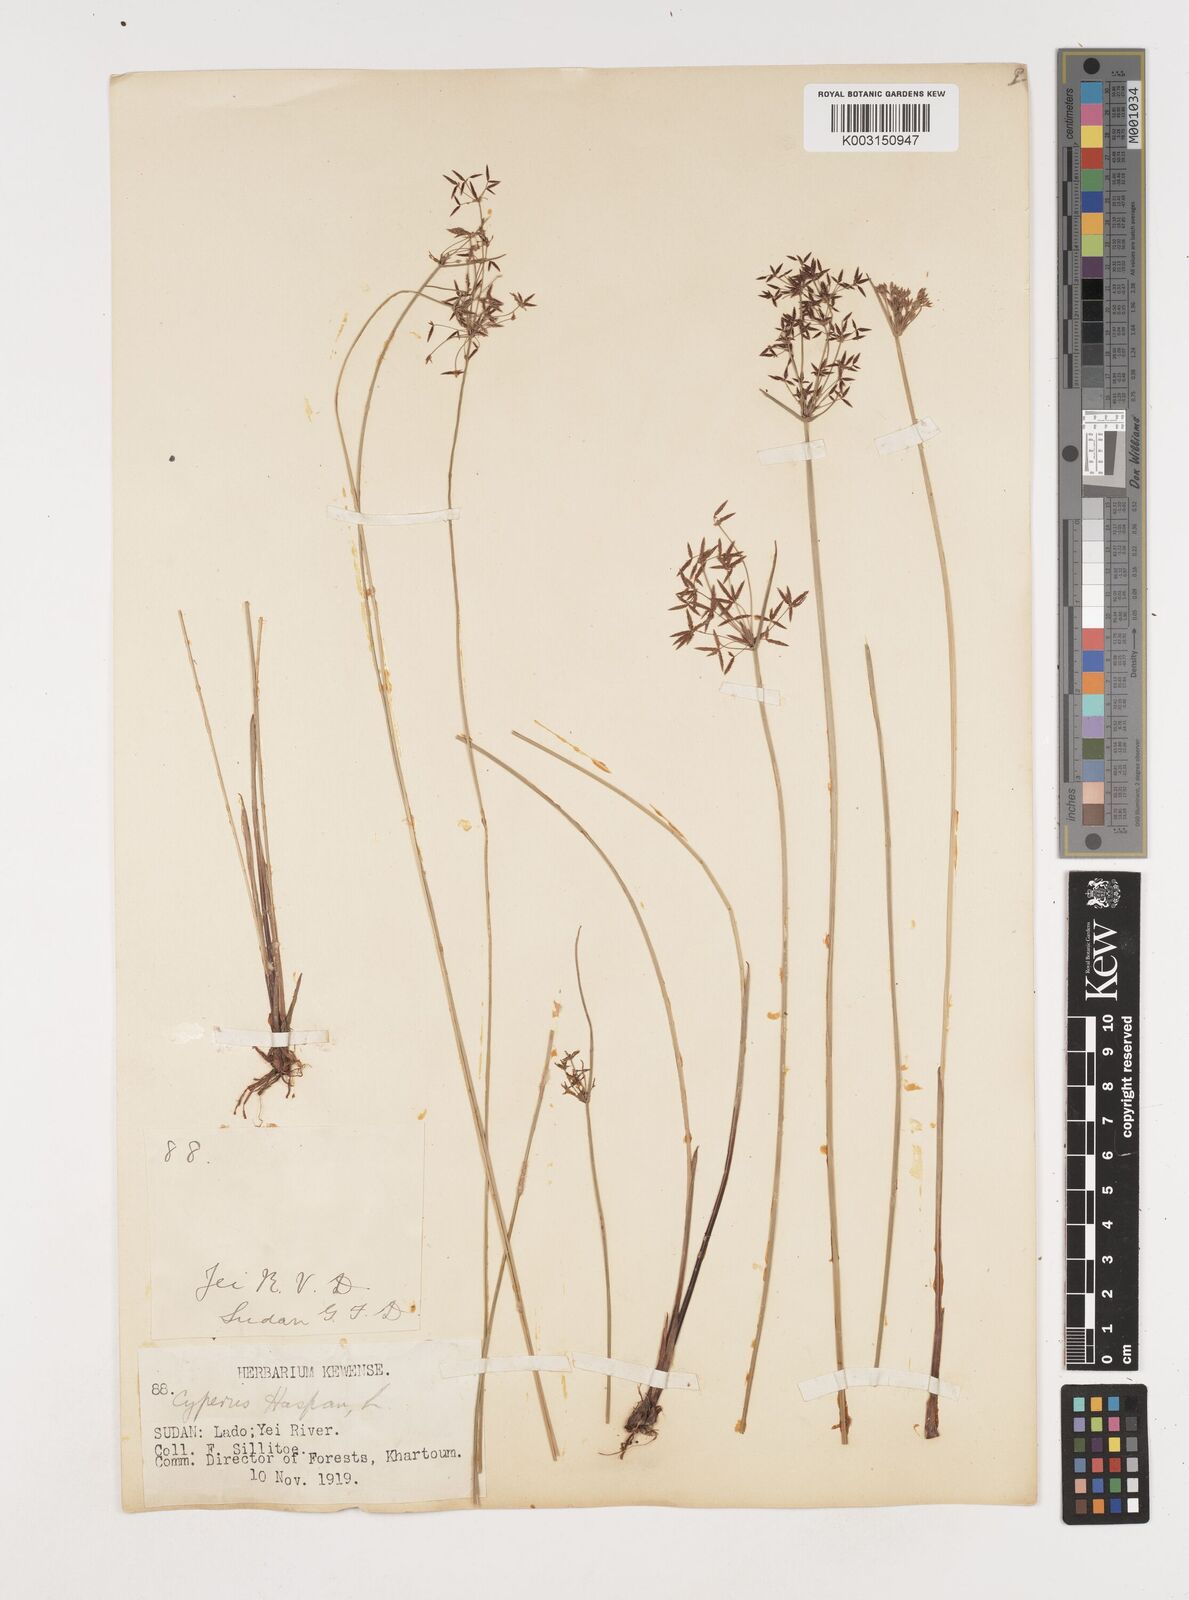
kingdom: Plantae
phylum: Tracheophyta
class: Liliopsida
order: Poales
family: Cyperaceae
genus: Cyperus
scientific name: Cyperus haspan
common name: Haspan flatsedge
